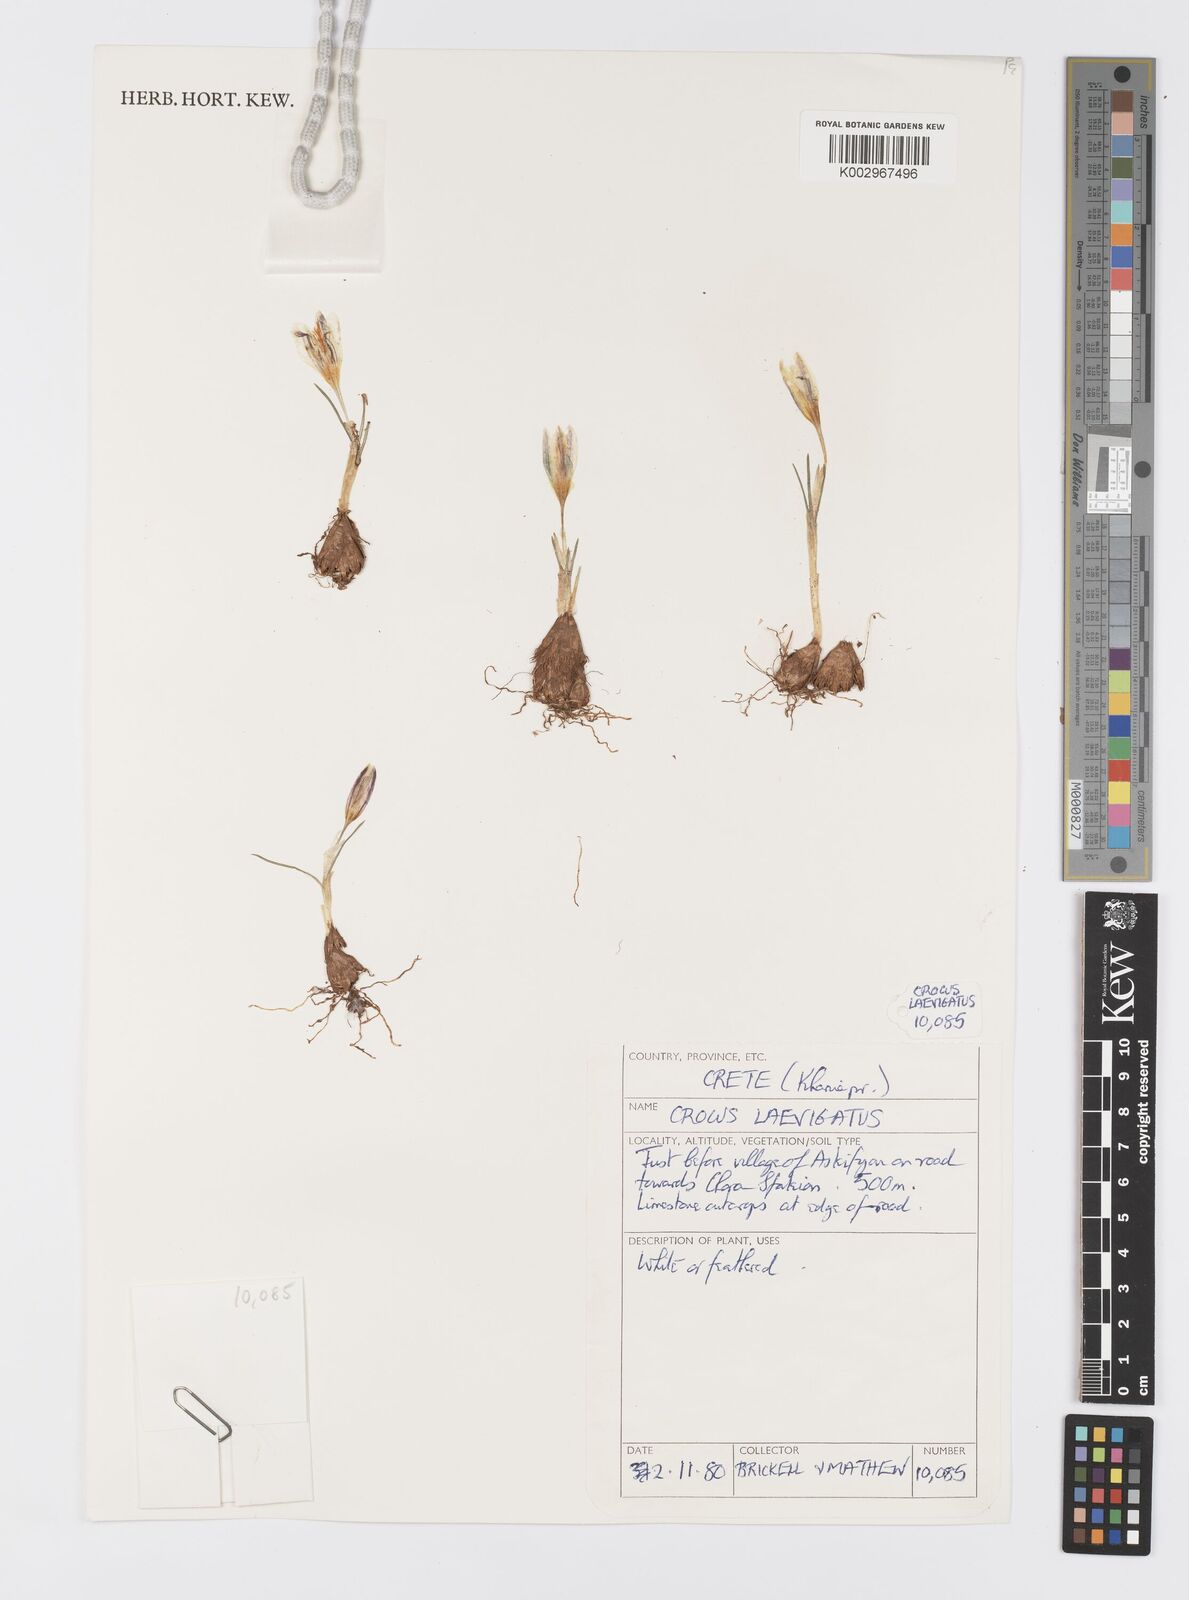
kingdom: Plantae
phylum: Tracheophyta
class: Liliopsida
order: Asparagales
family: Iridaceae
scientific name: Iridaceae
